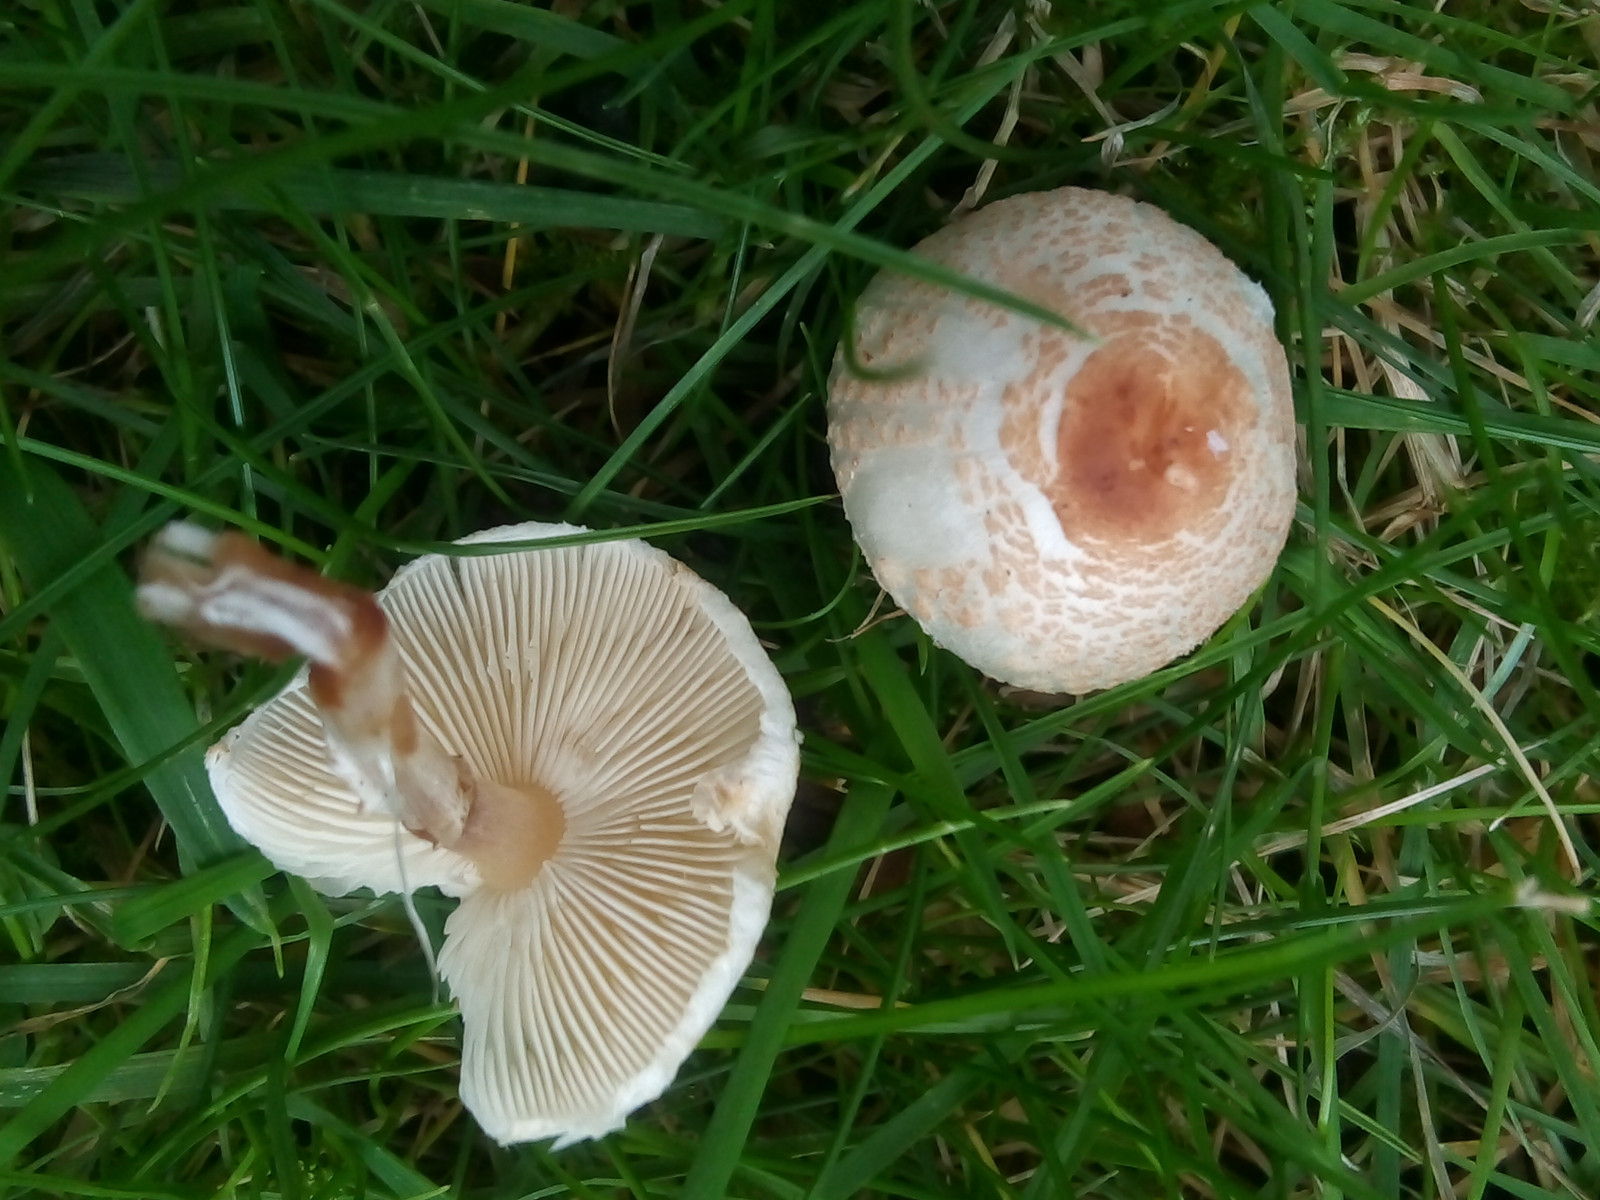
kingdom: Fungi
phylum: Basidiomycota
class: Agaricomycetes
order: Agaricales
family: Agaricaceae
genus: Lepiota
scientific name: Lepiota cristata
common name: stinkende parasolhat
